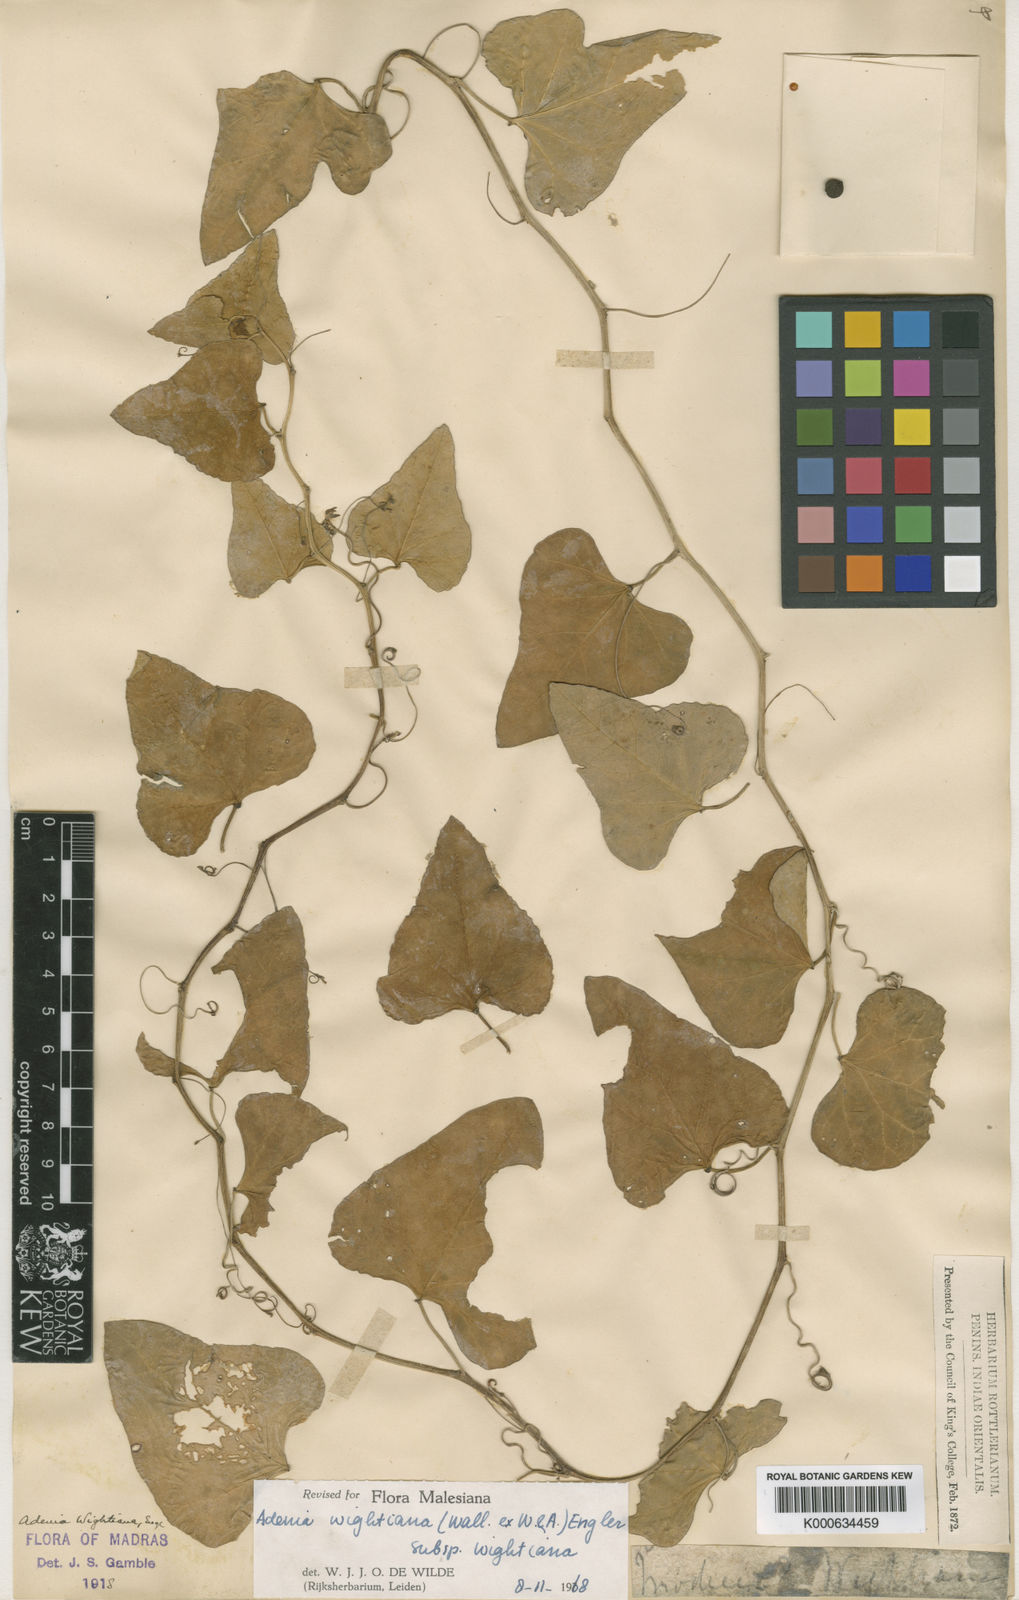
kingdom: Plantae
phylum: Tracheophyta
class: Magnoliopsida
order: Malpighiales
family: Passifloraceae
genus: Adenia
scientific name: Adenia wightiana
